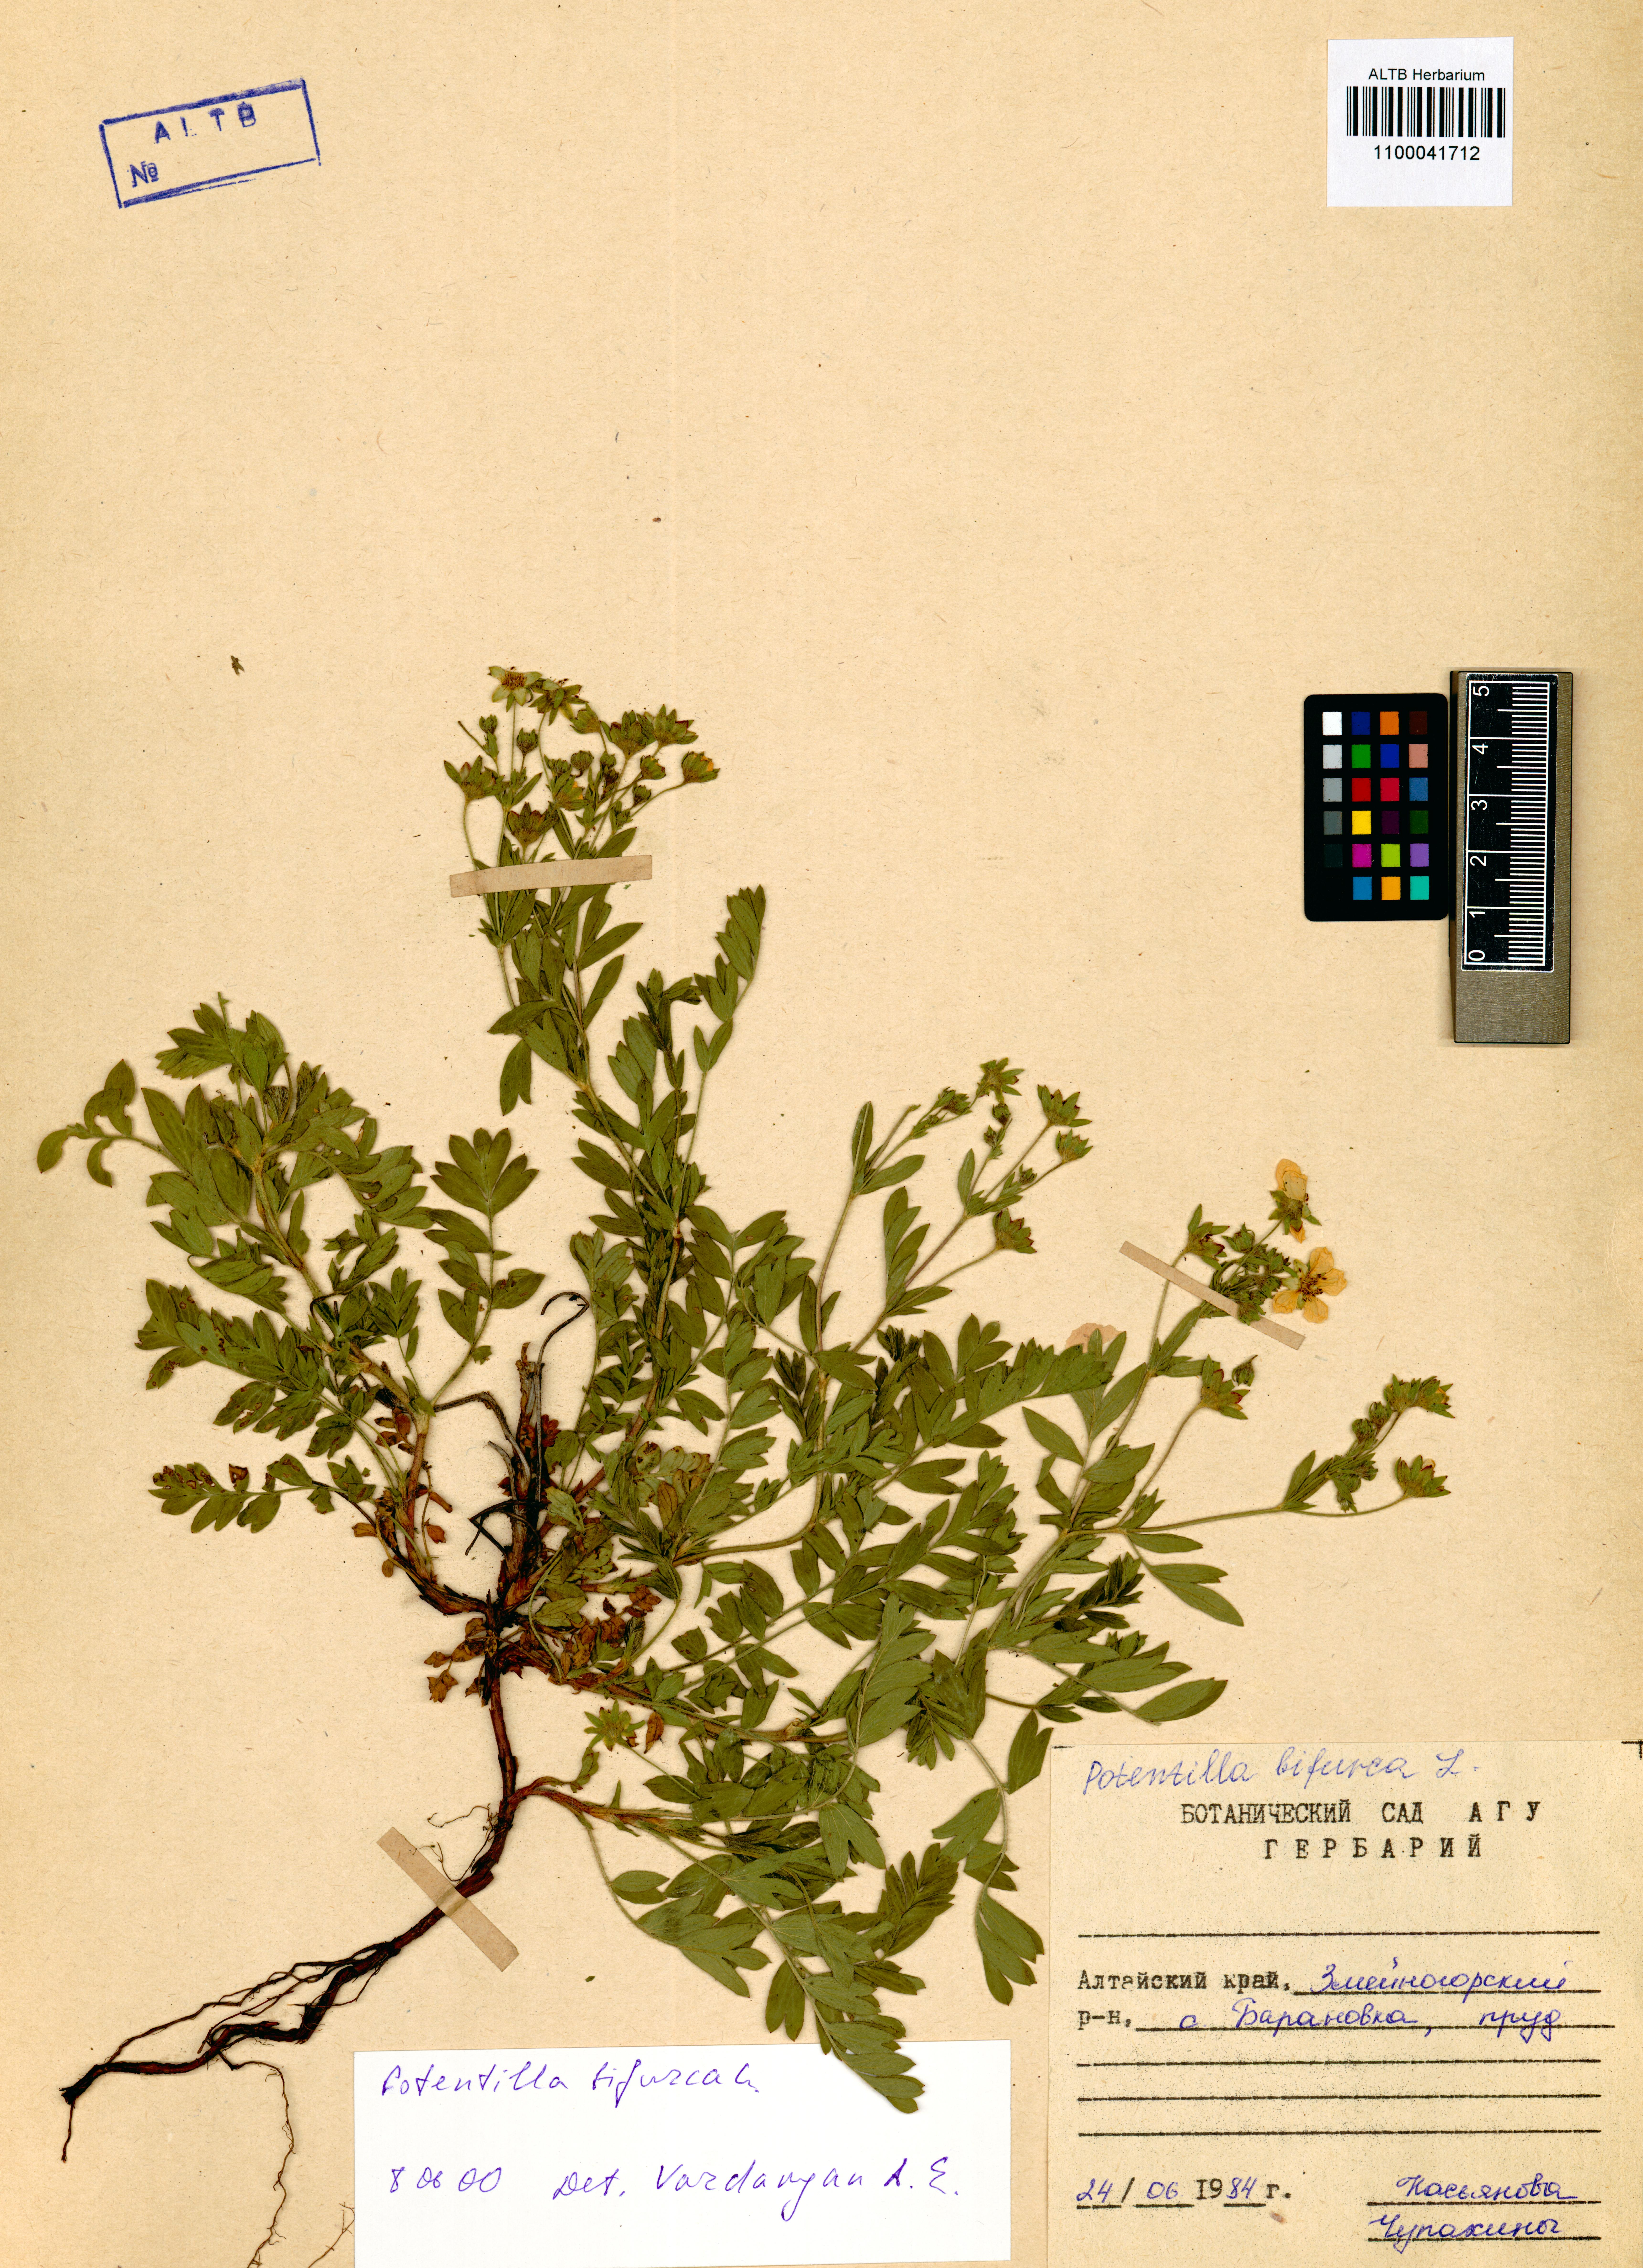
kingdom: Plantae
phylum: Tracheophyta
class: Magnoliopsida
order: Rosales
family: Rosaceae
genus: Sibbaldianthe
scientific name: Sibbaldianthe bifurca
